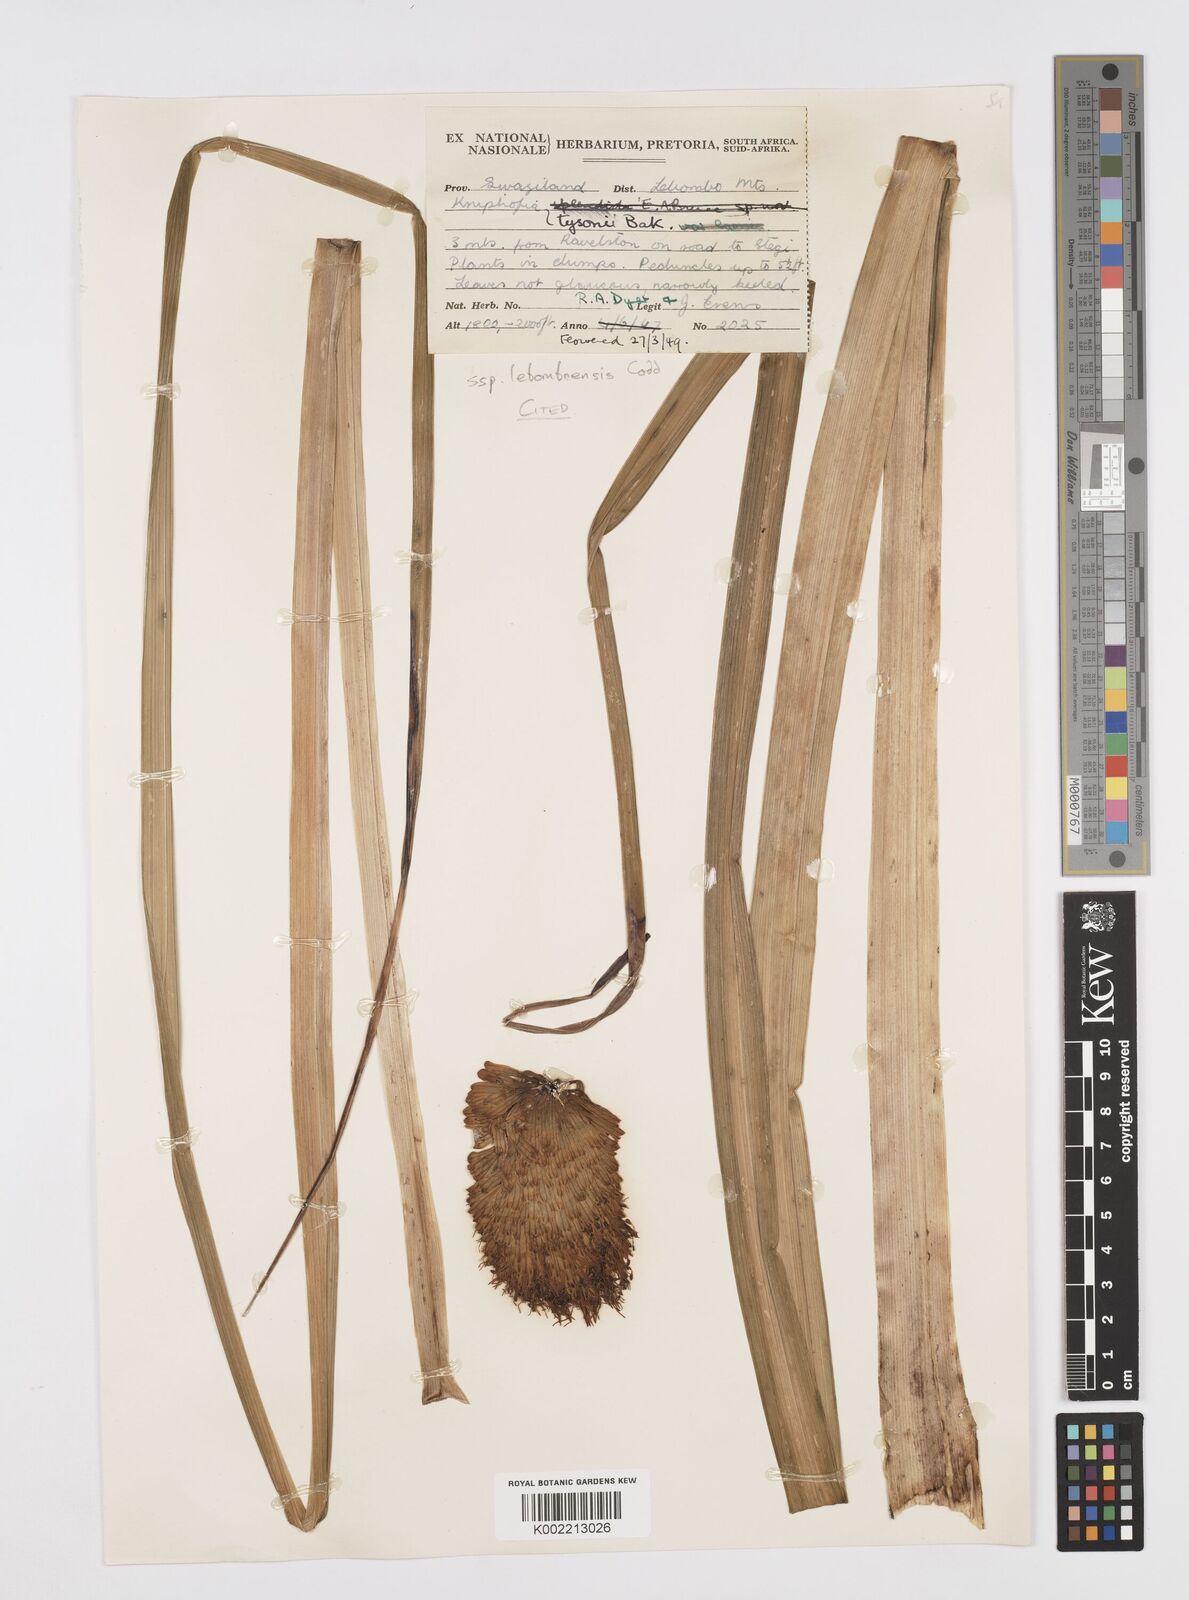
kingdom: Plantae
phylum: Tracheophyta
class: Liliopsida
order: Asparagales
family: Asphodelaceae
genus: Kniphofia
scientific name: Kniphofia tysonii
